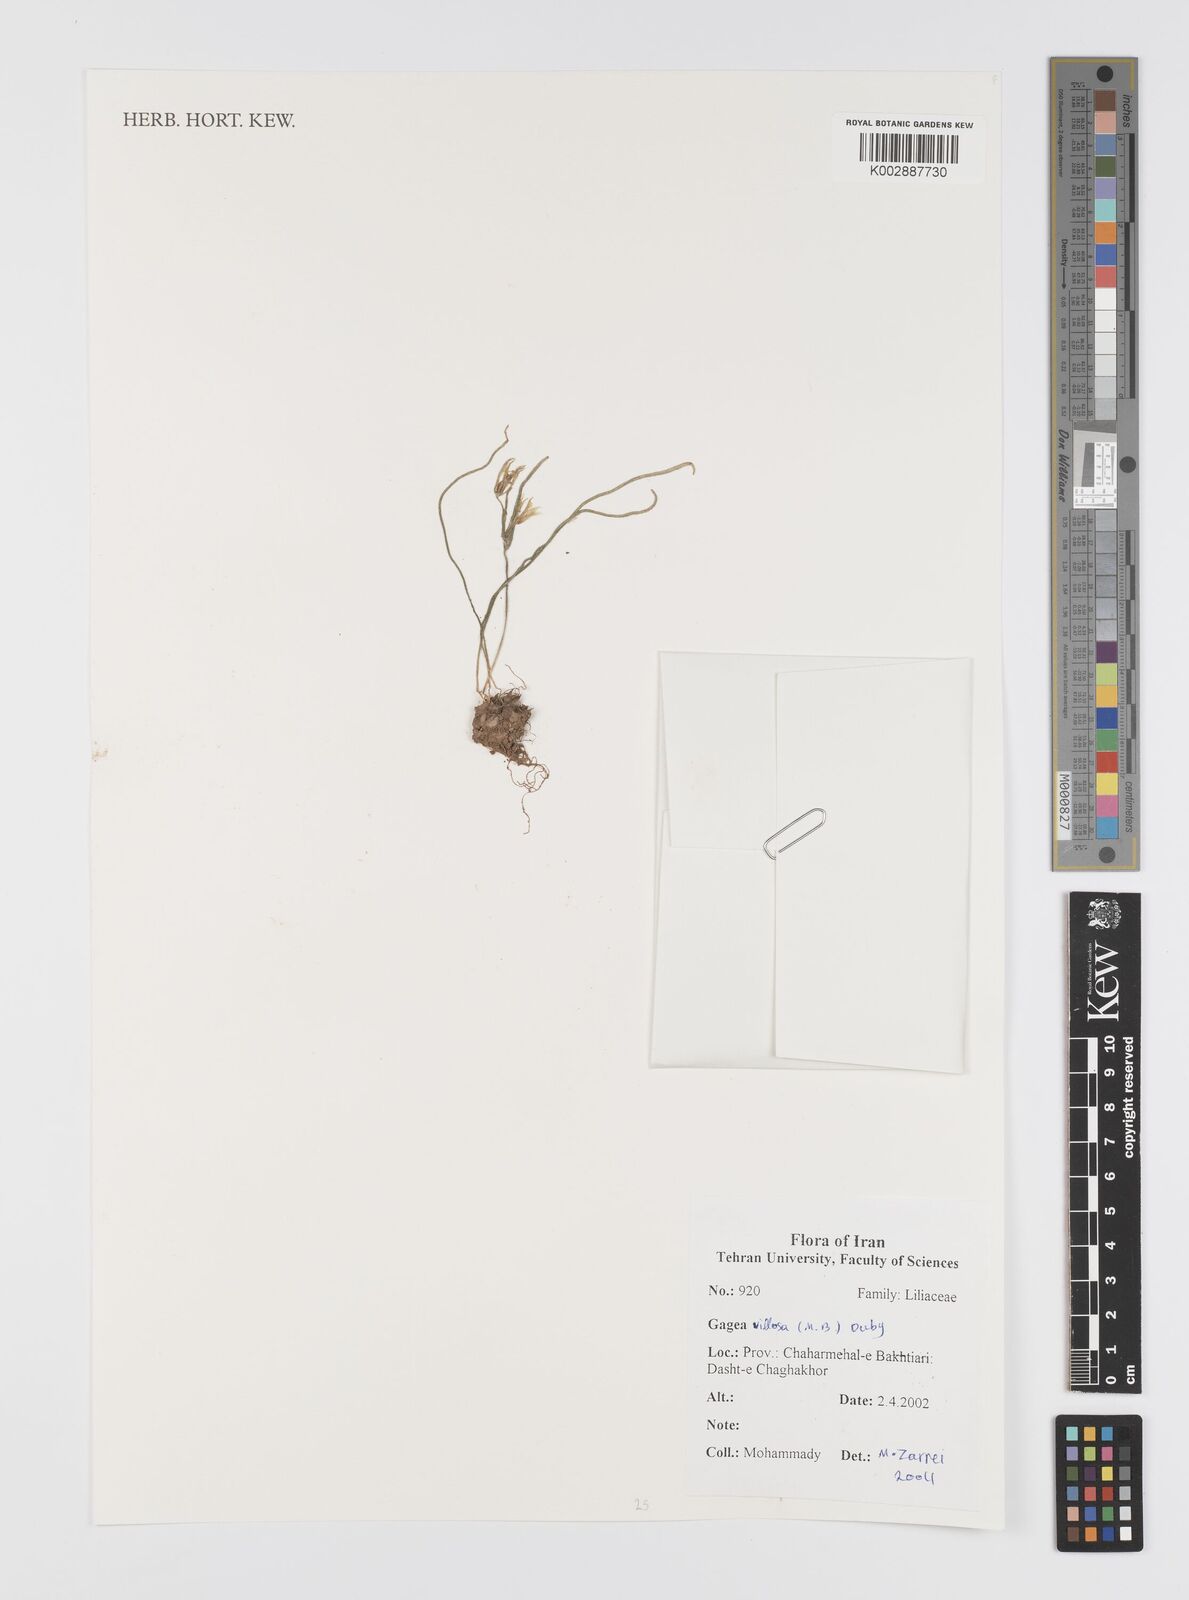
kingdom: Plantae
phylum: Tracheophyta
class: Liliopsida
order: Liliales
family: Liliaceae
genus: Gagea
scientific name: Gagea villosa
